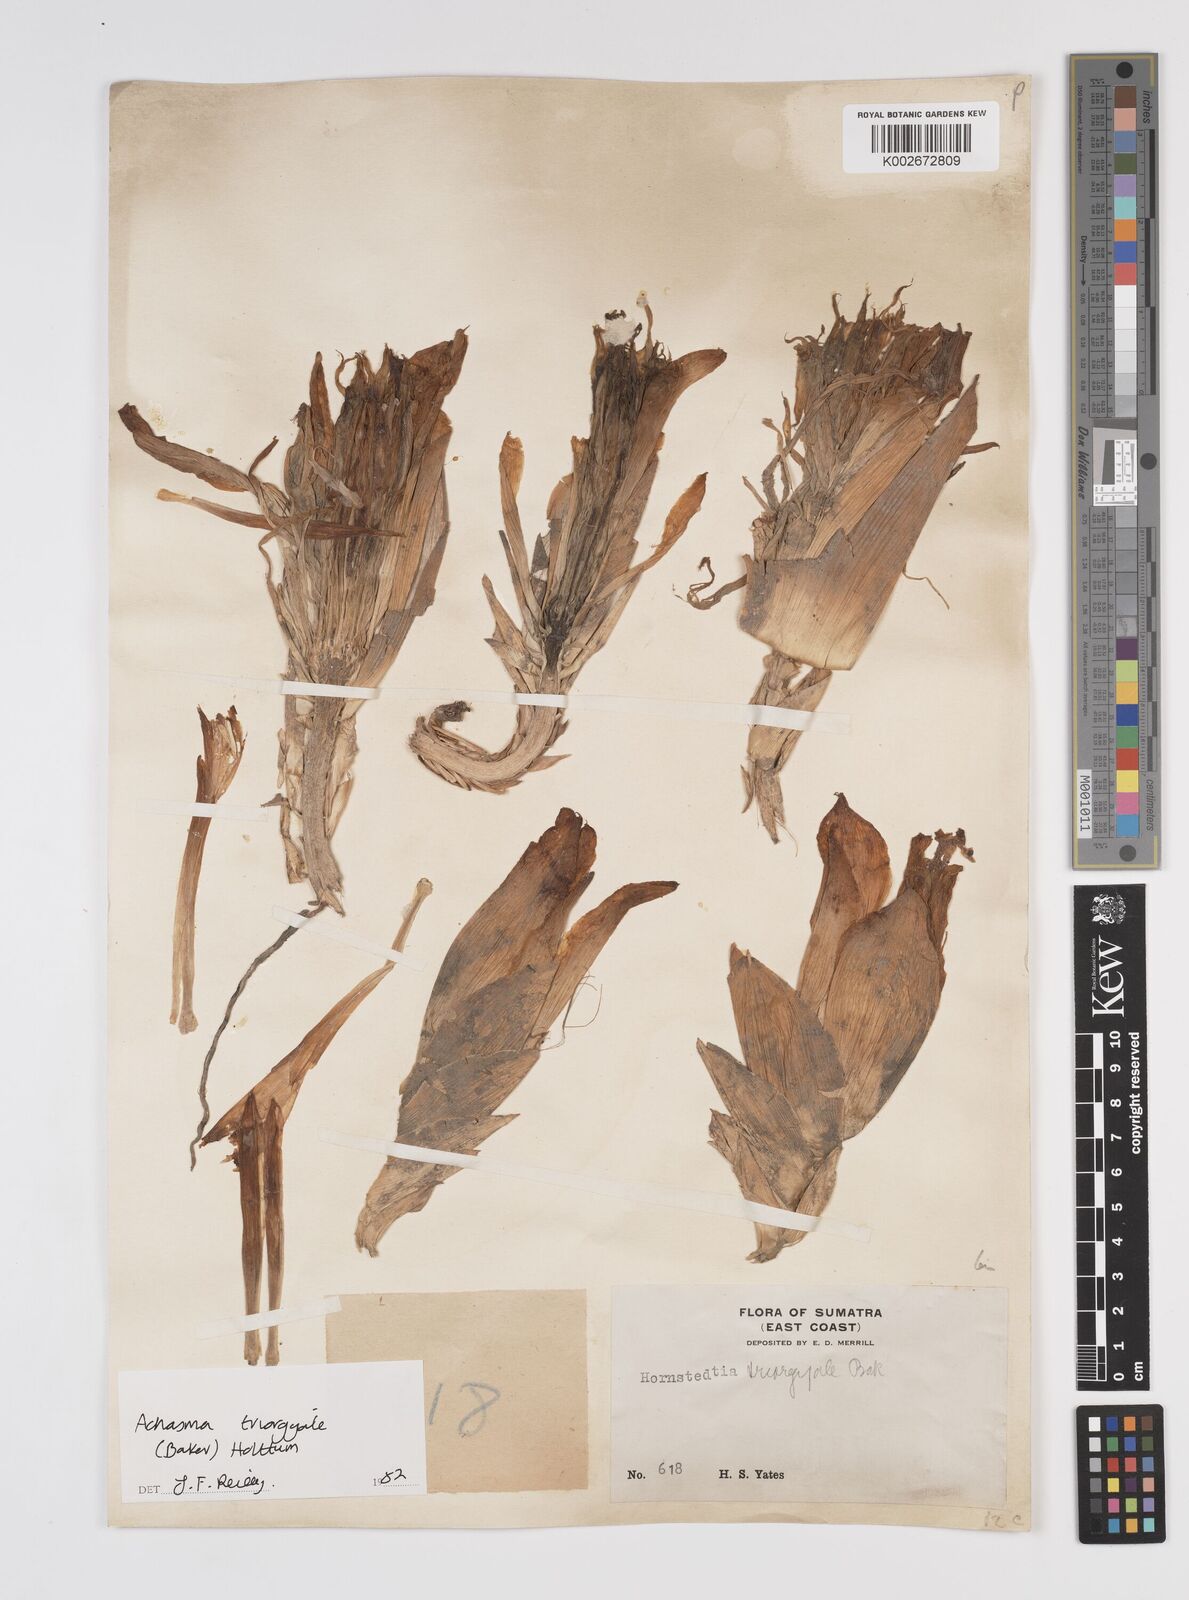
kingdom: Plantae
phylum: Tracheophyta
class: Liliopsida
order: Zingiberales
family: Zingiberaceae
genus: Etlingera
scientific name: Etlingera triorgyalis
